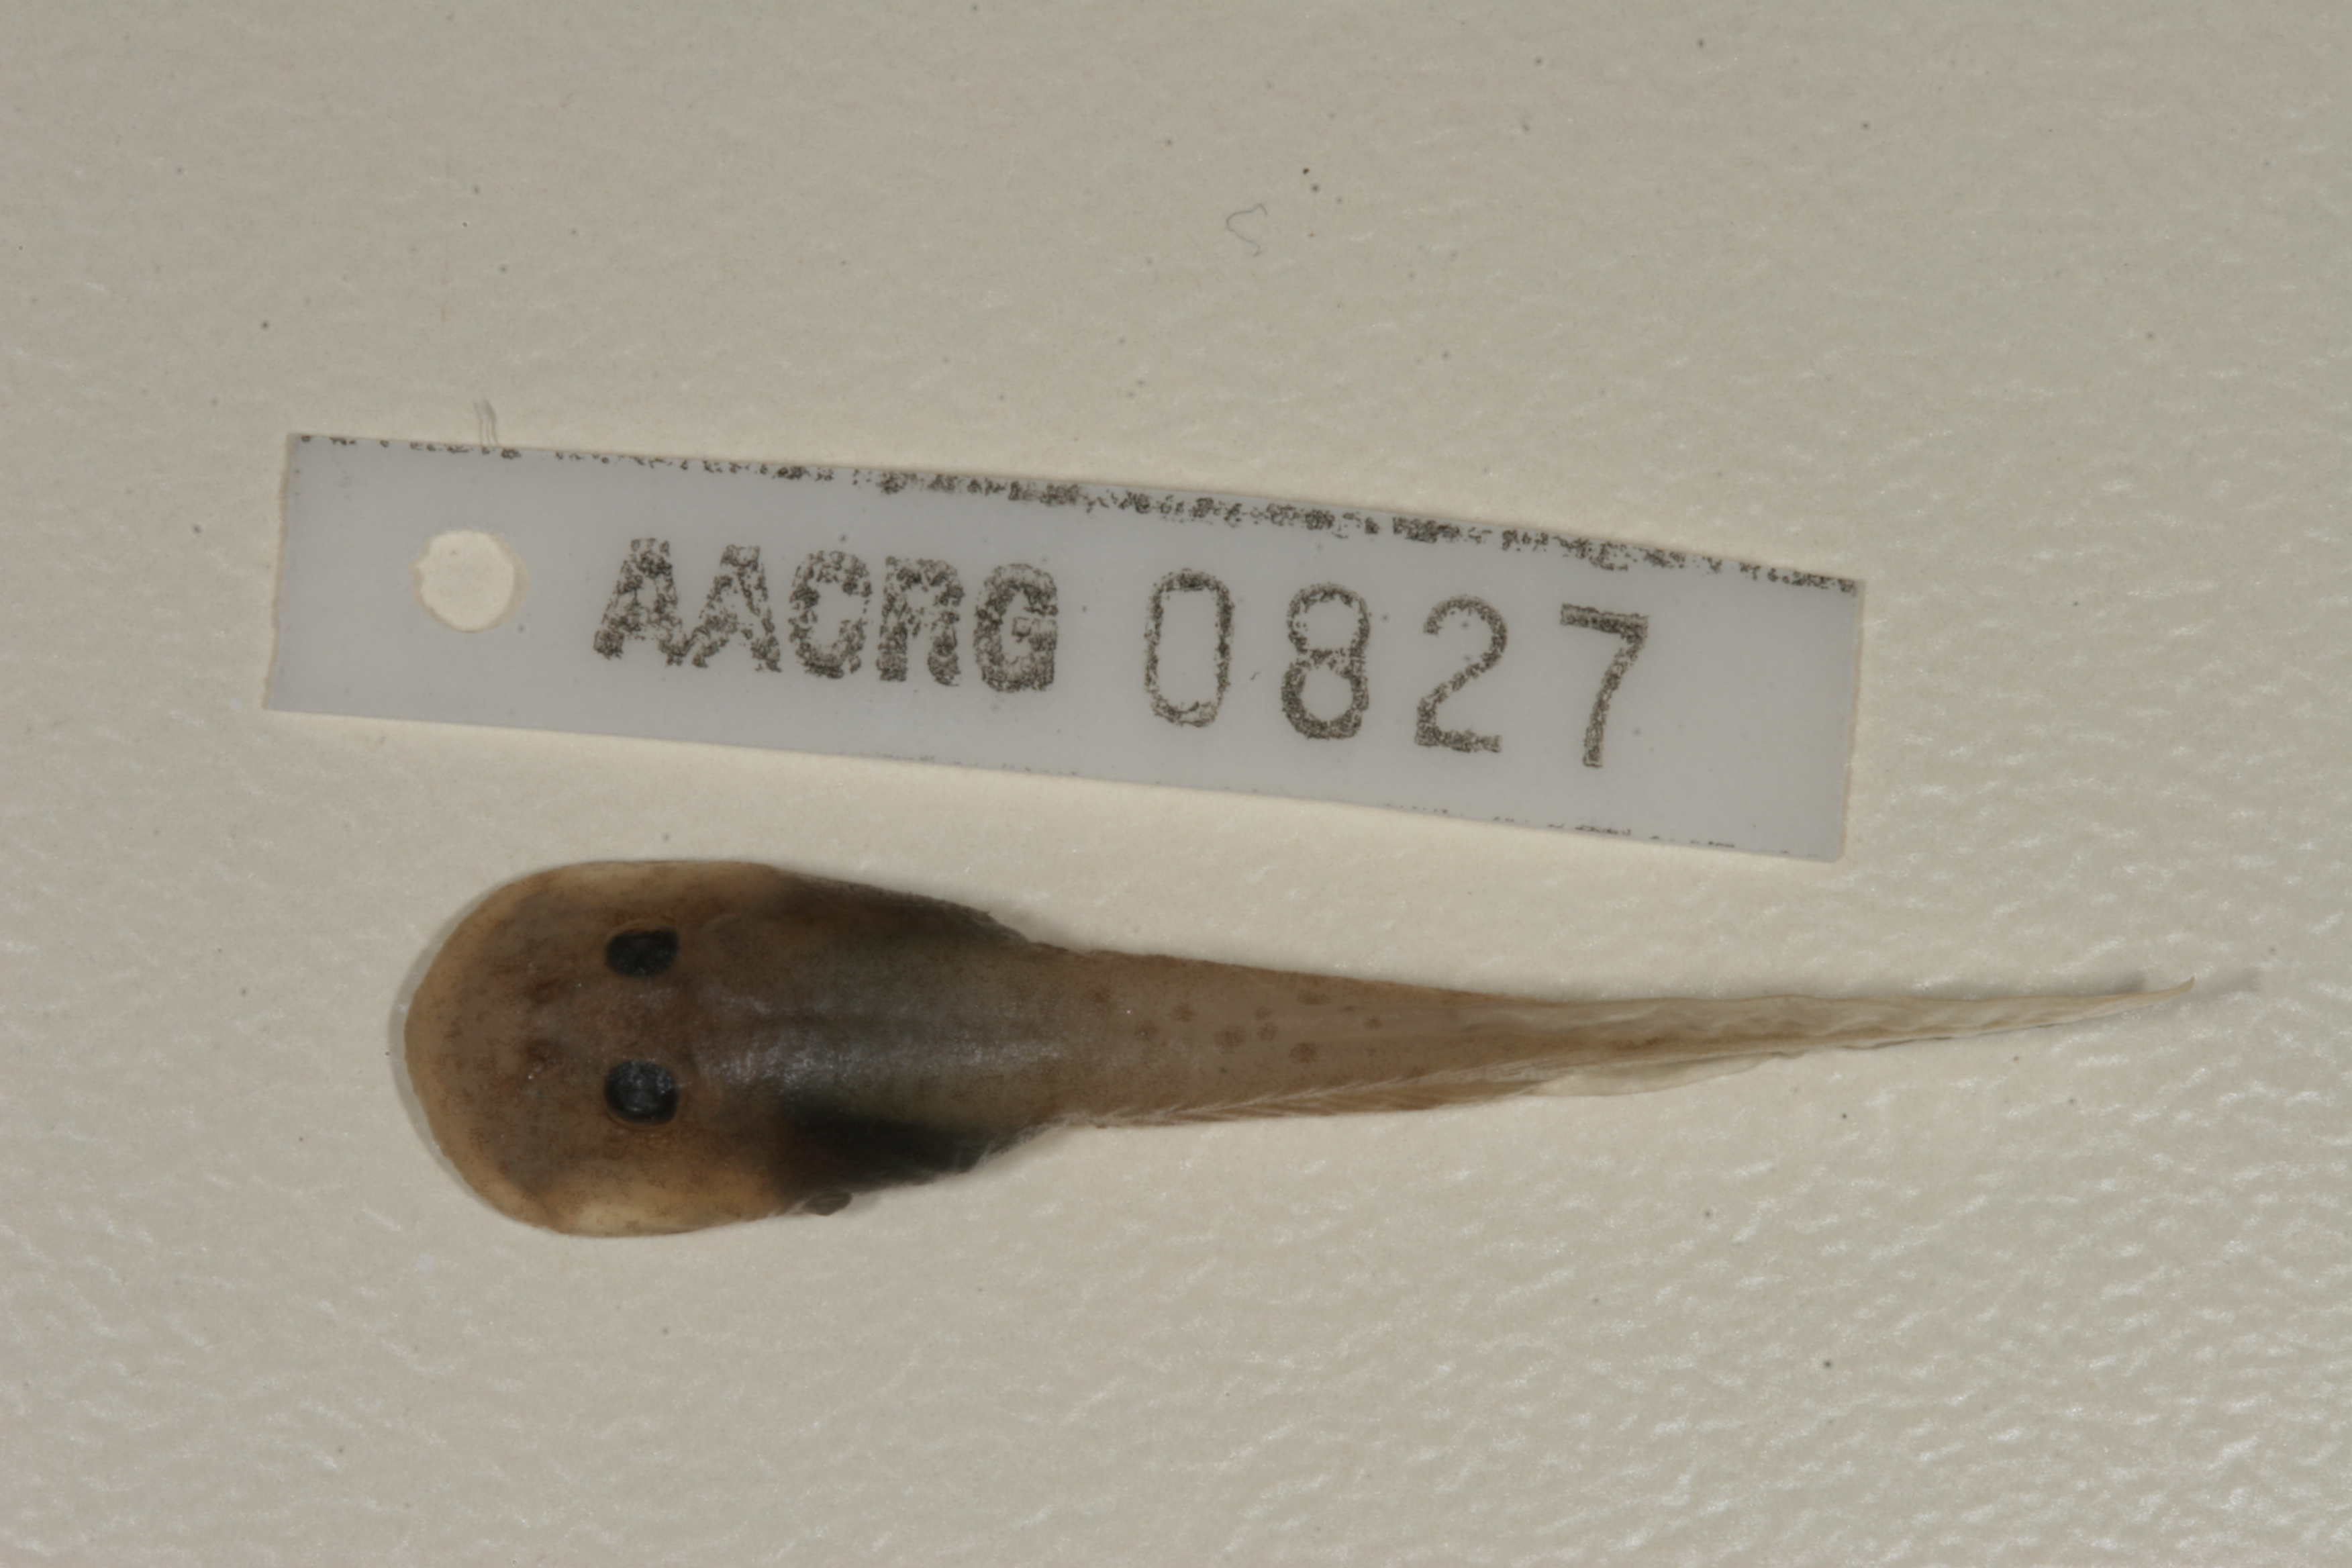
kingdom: Animalia
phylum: Chordata
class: Amphibia
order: Anura
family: Heleophrynidae
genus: Heleophryne
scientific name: Heleophryne orientalis
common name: East cape ghost frog
